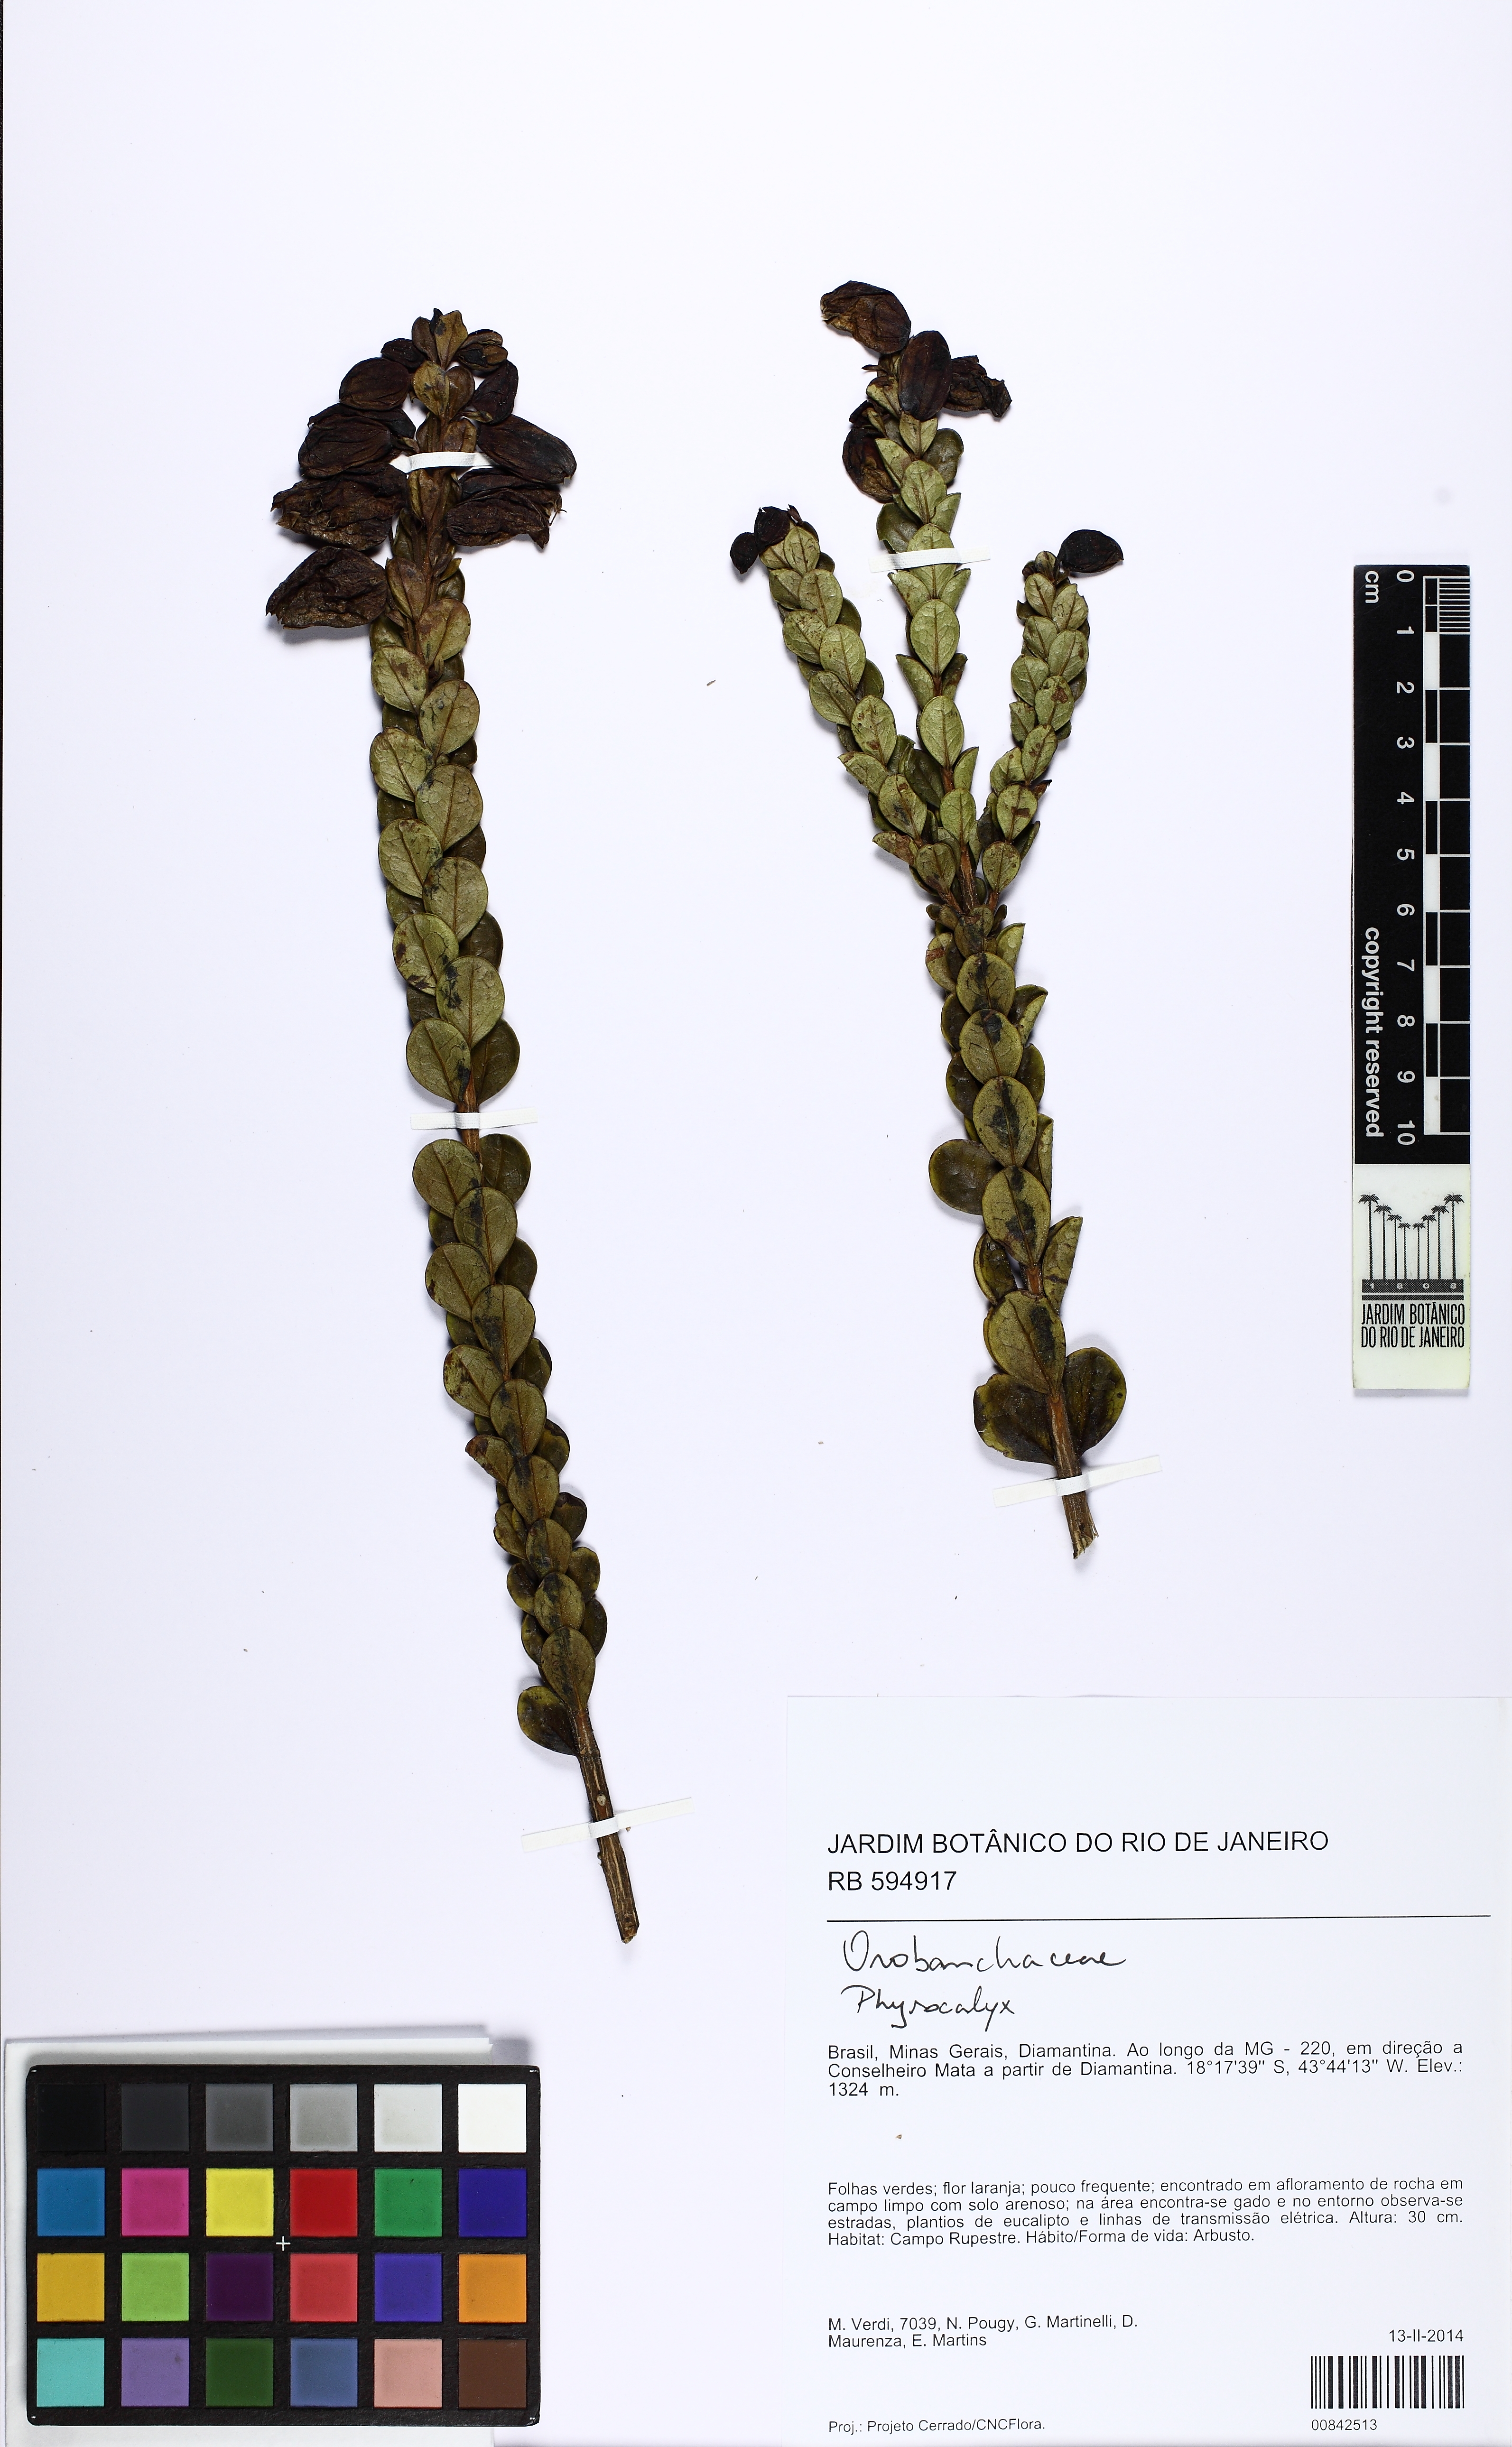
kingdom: Plantae
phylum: Tracheophyta
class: Magnoliopsida
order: Lamiales
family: Orobanchaceae
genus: Physocalyx
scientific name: Physocalyx aurantiacus
